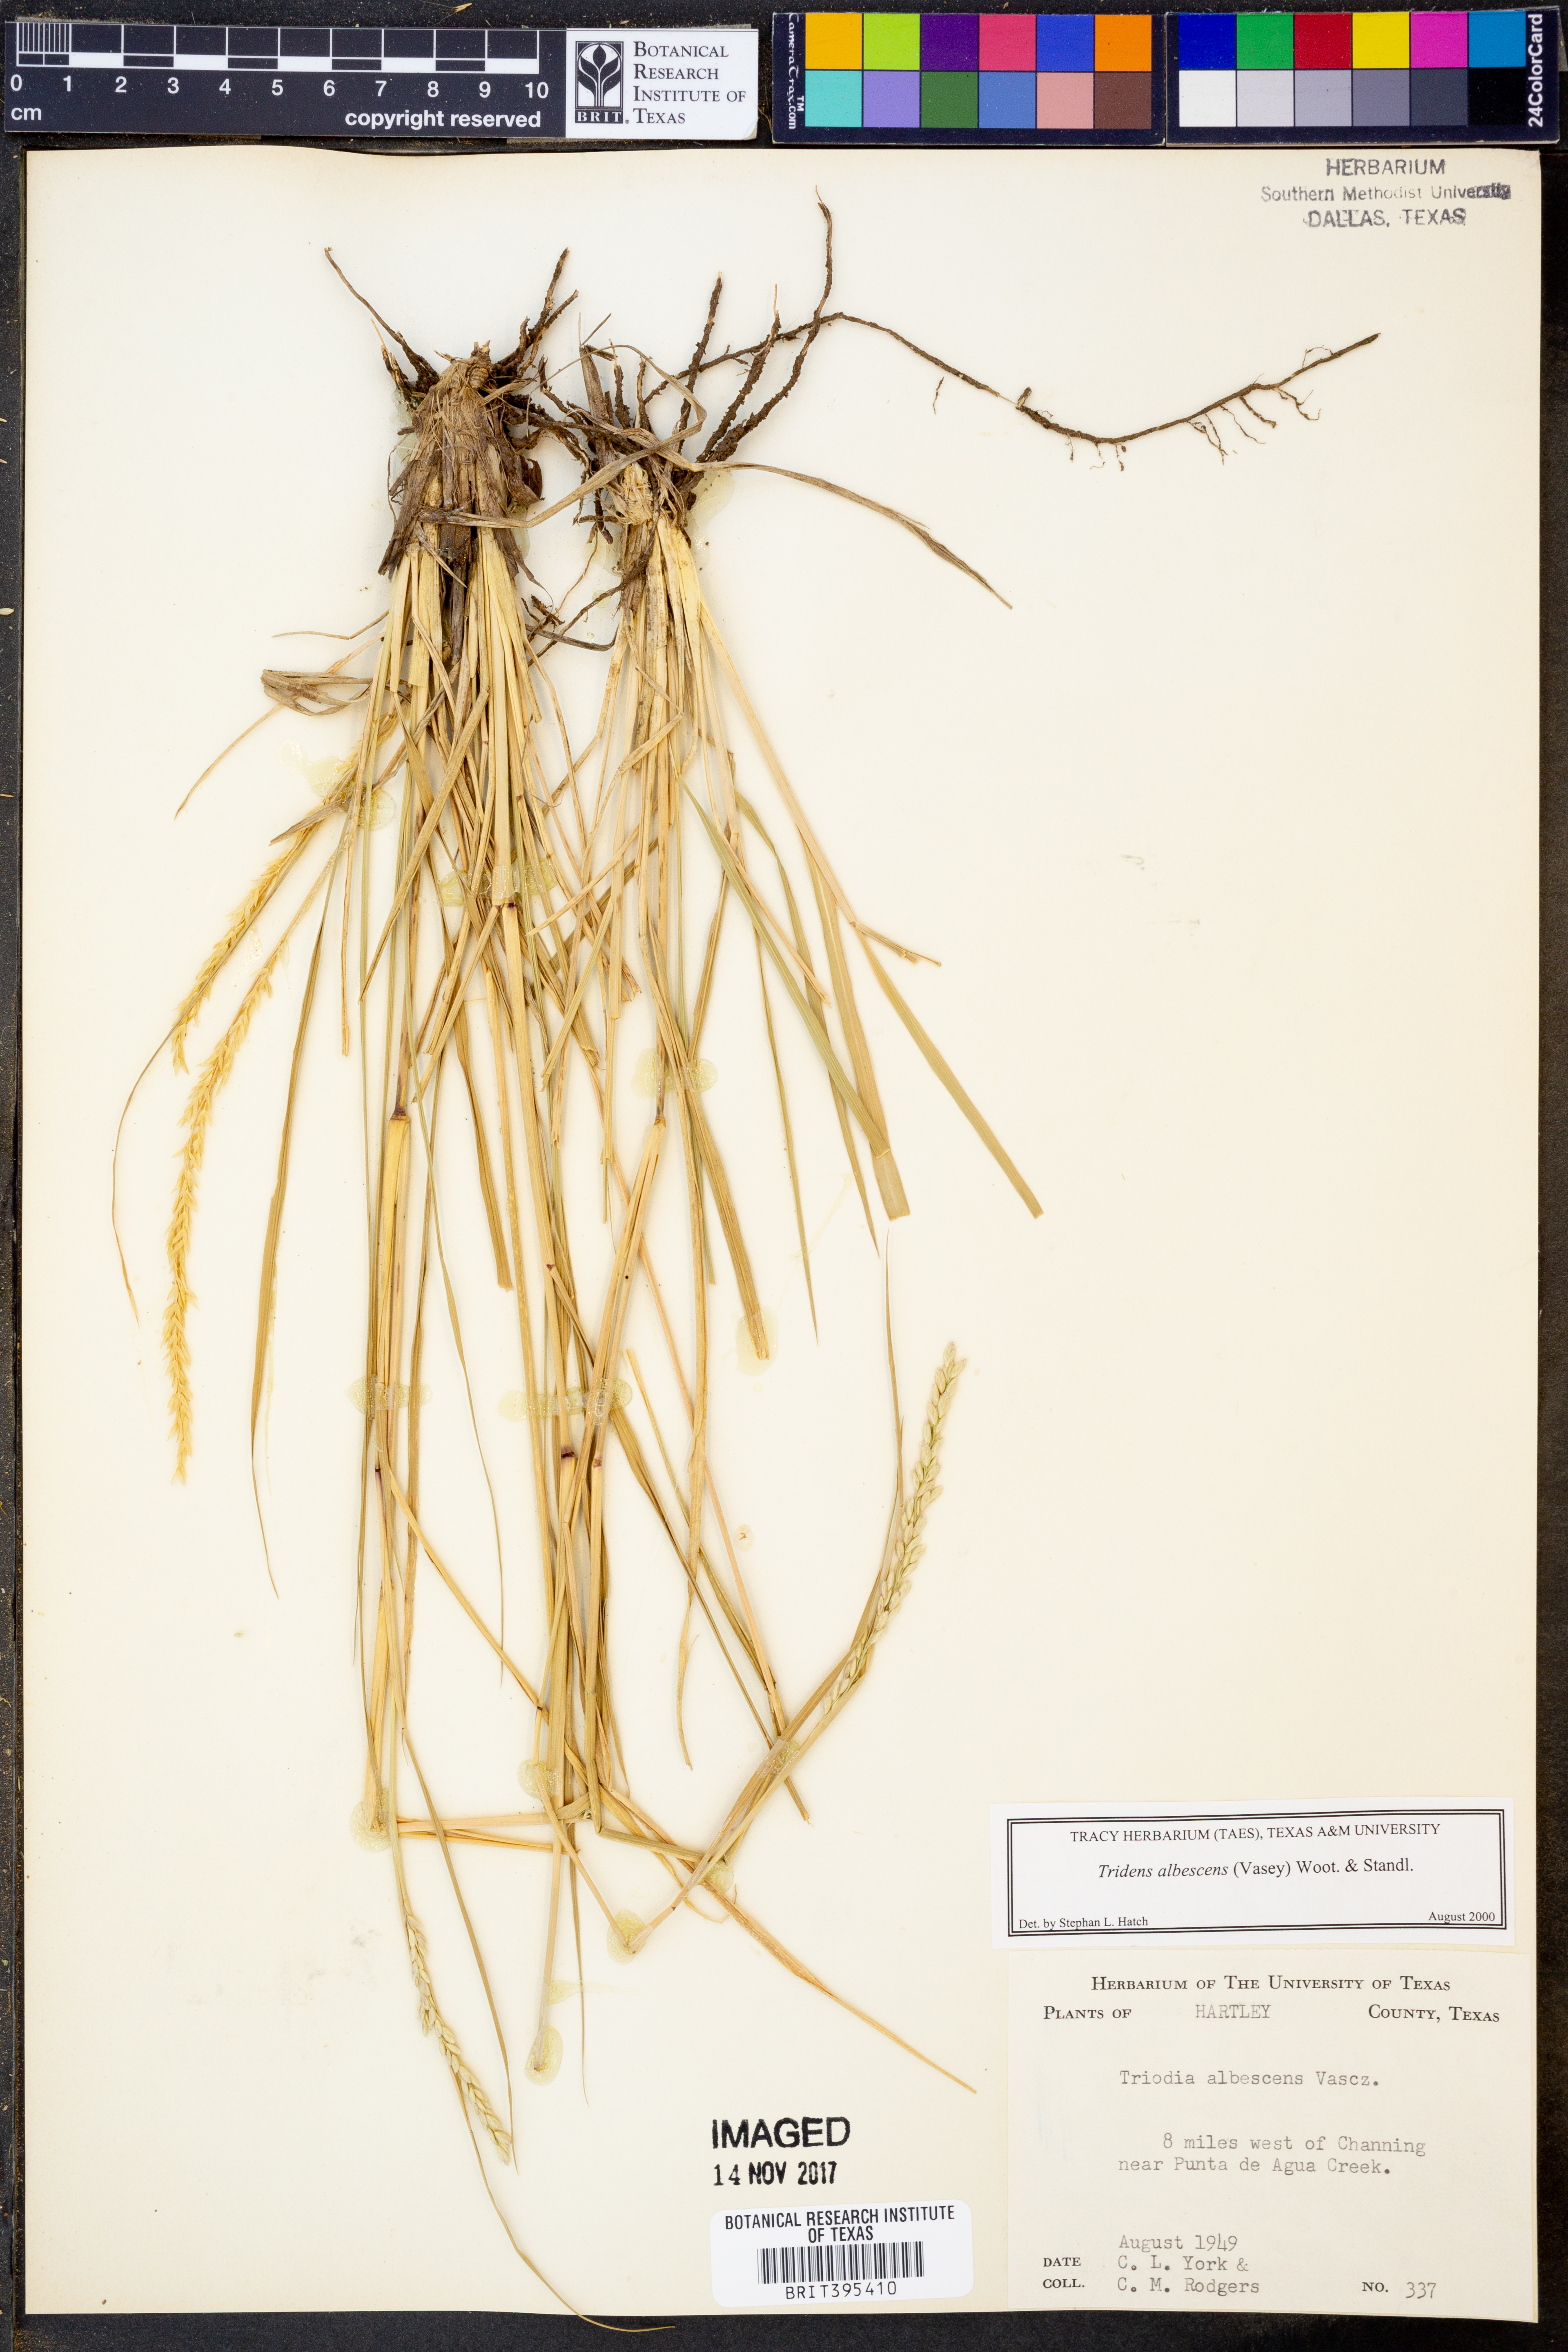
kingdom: Plantae
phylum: Tracheophyta
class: Liliopsida
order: Poales
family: Poaceae
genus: Tridens
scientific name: Tridens albescens
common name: White tridens
